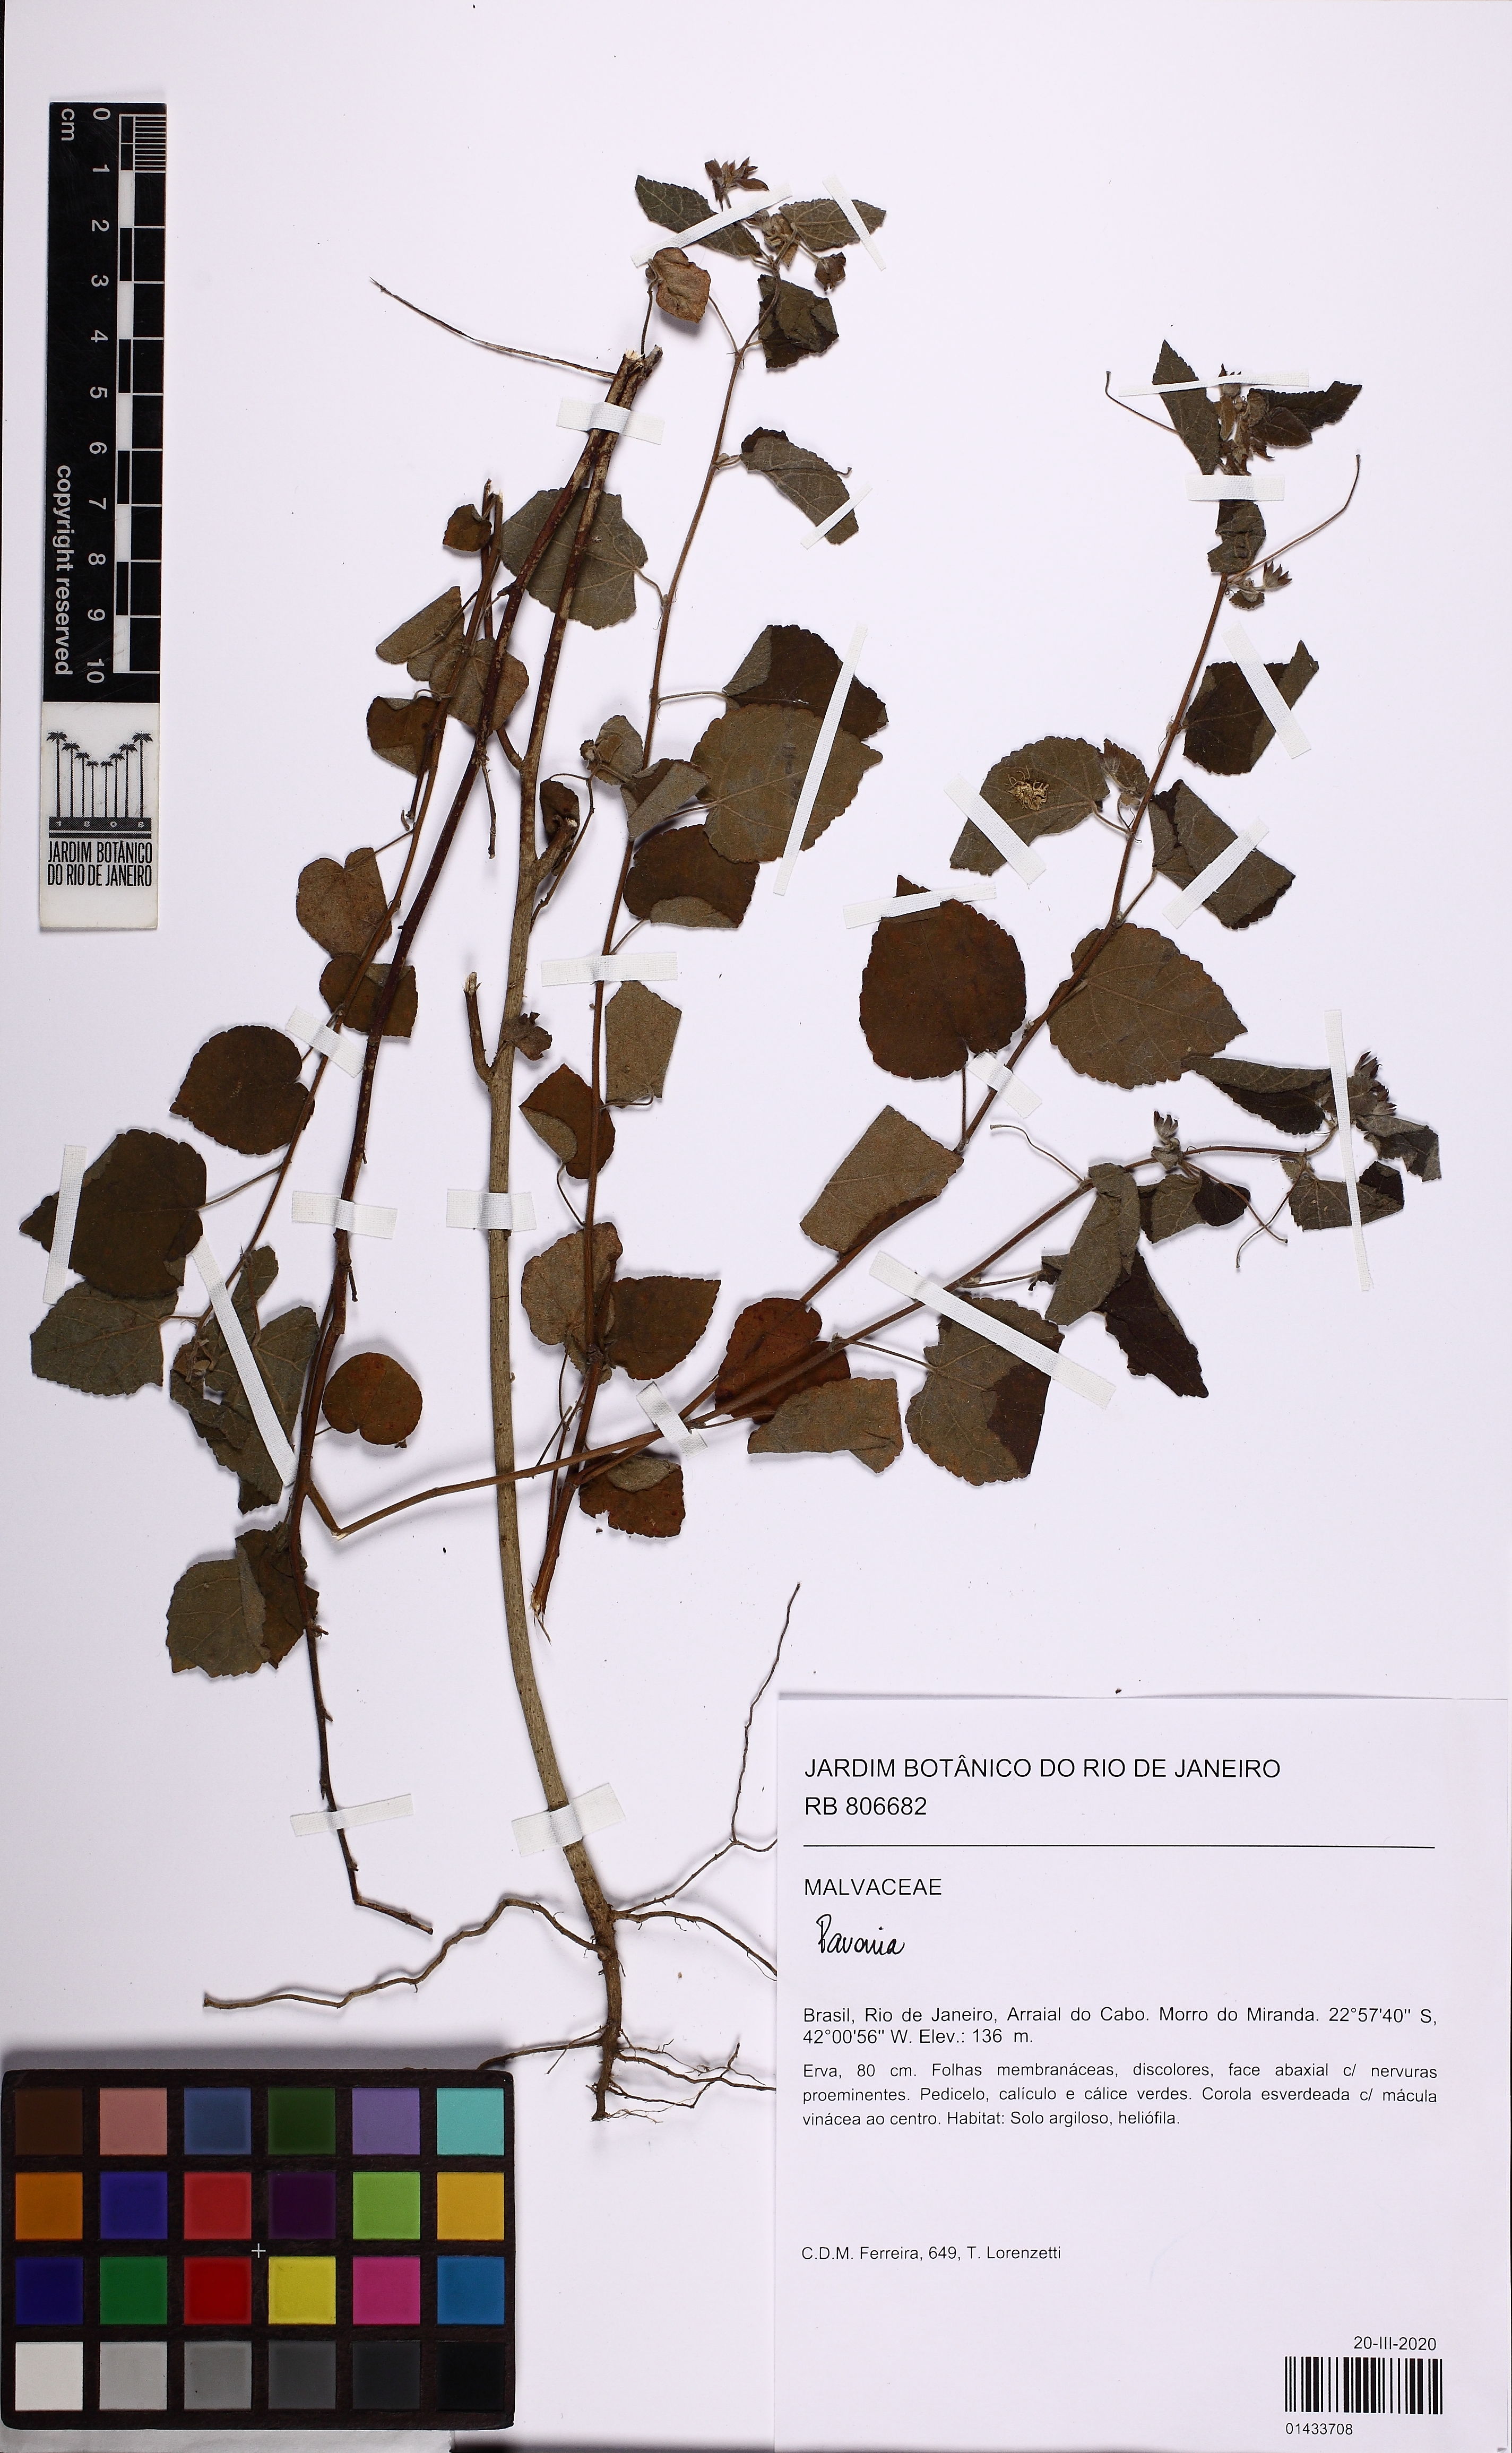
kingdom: Plantae
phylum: Tracheophyta
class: Magnoliopsida
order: Malvales
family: Malvaceae
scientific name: Malvaceae
